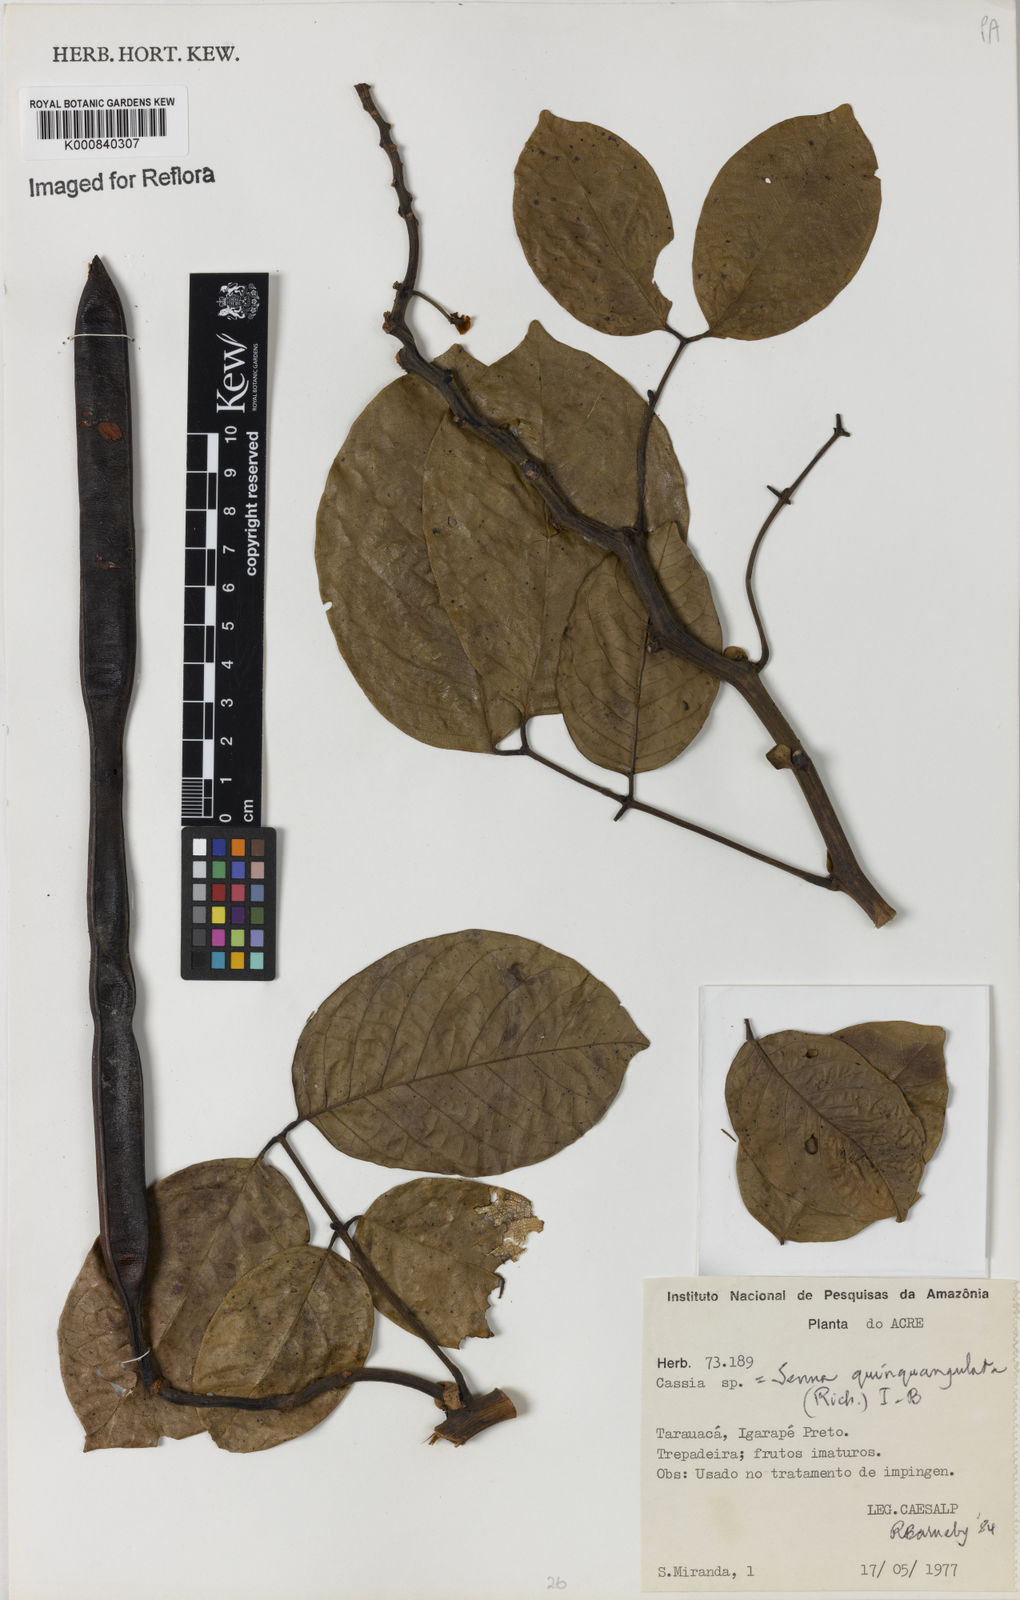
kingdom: Plantae
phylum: Tracheophyta
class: Magnoliopsida
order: Fabales
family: Fabaceae
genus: Senna
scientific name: Senna
